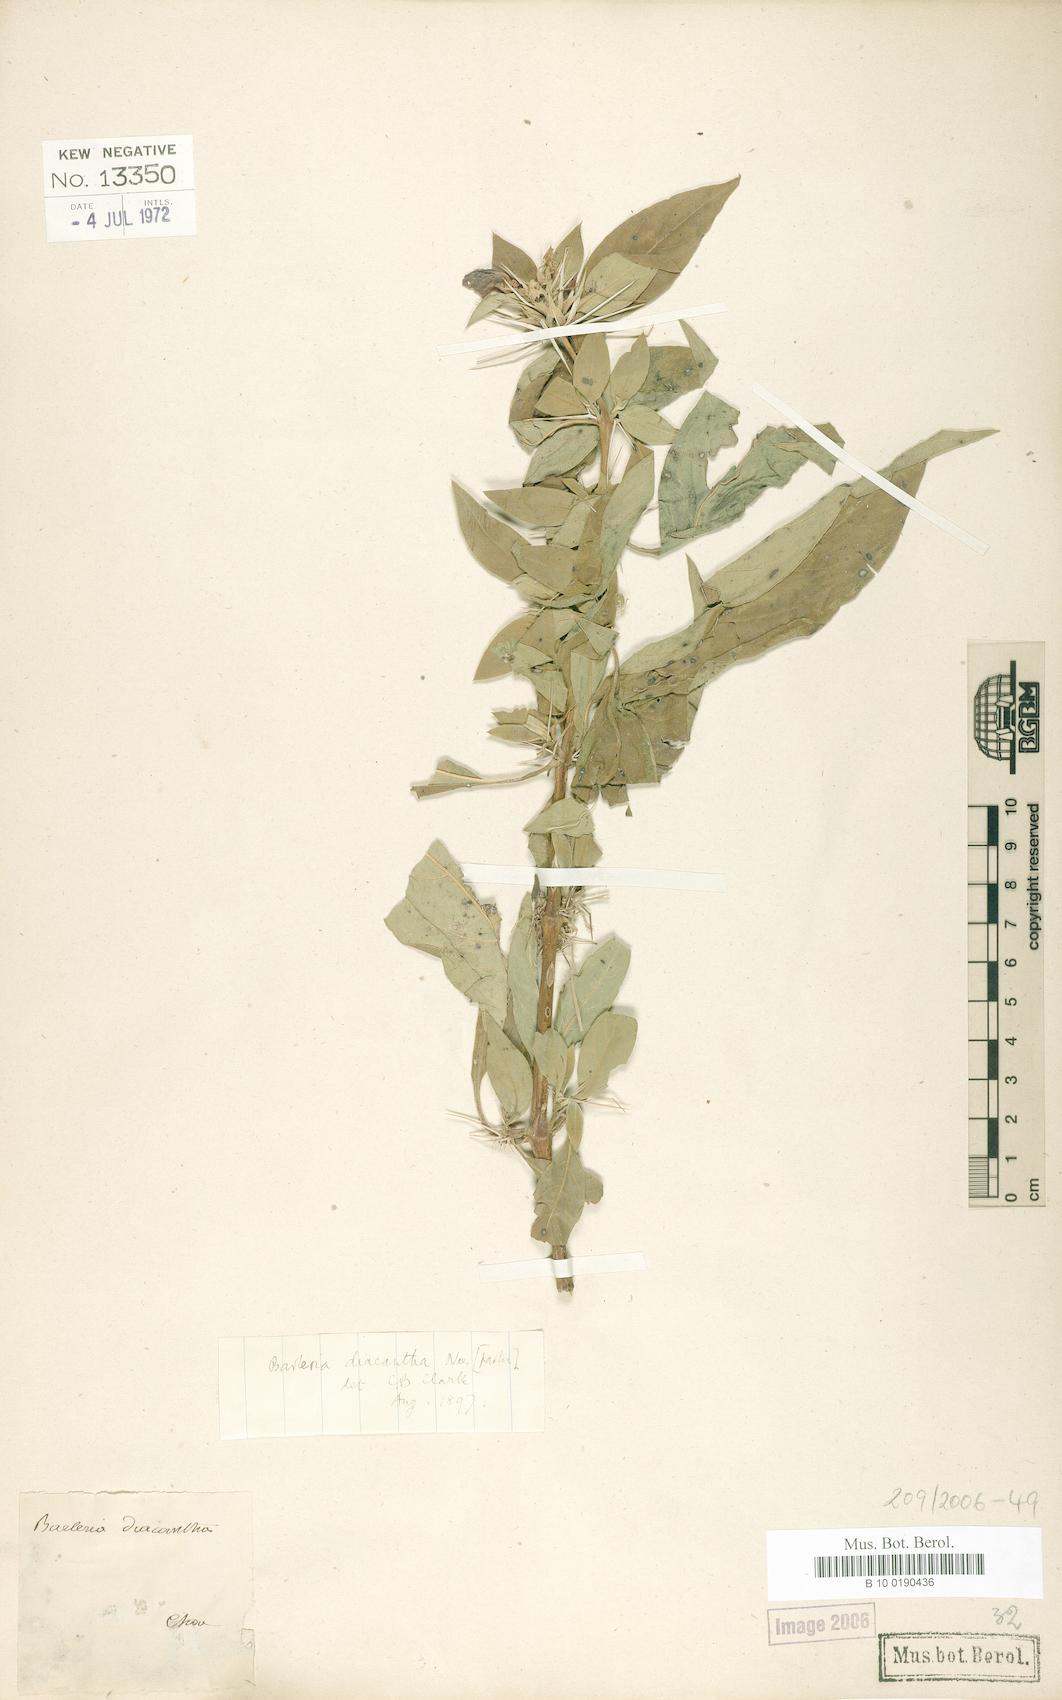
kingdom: Plantae
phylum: Tracheophyta
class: Magnoliopsida
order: Lamiales
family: Acanthaceae
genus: Barleria
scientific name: Barleria trispinosa
